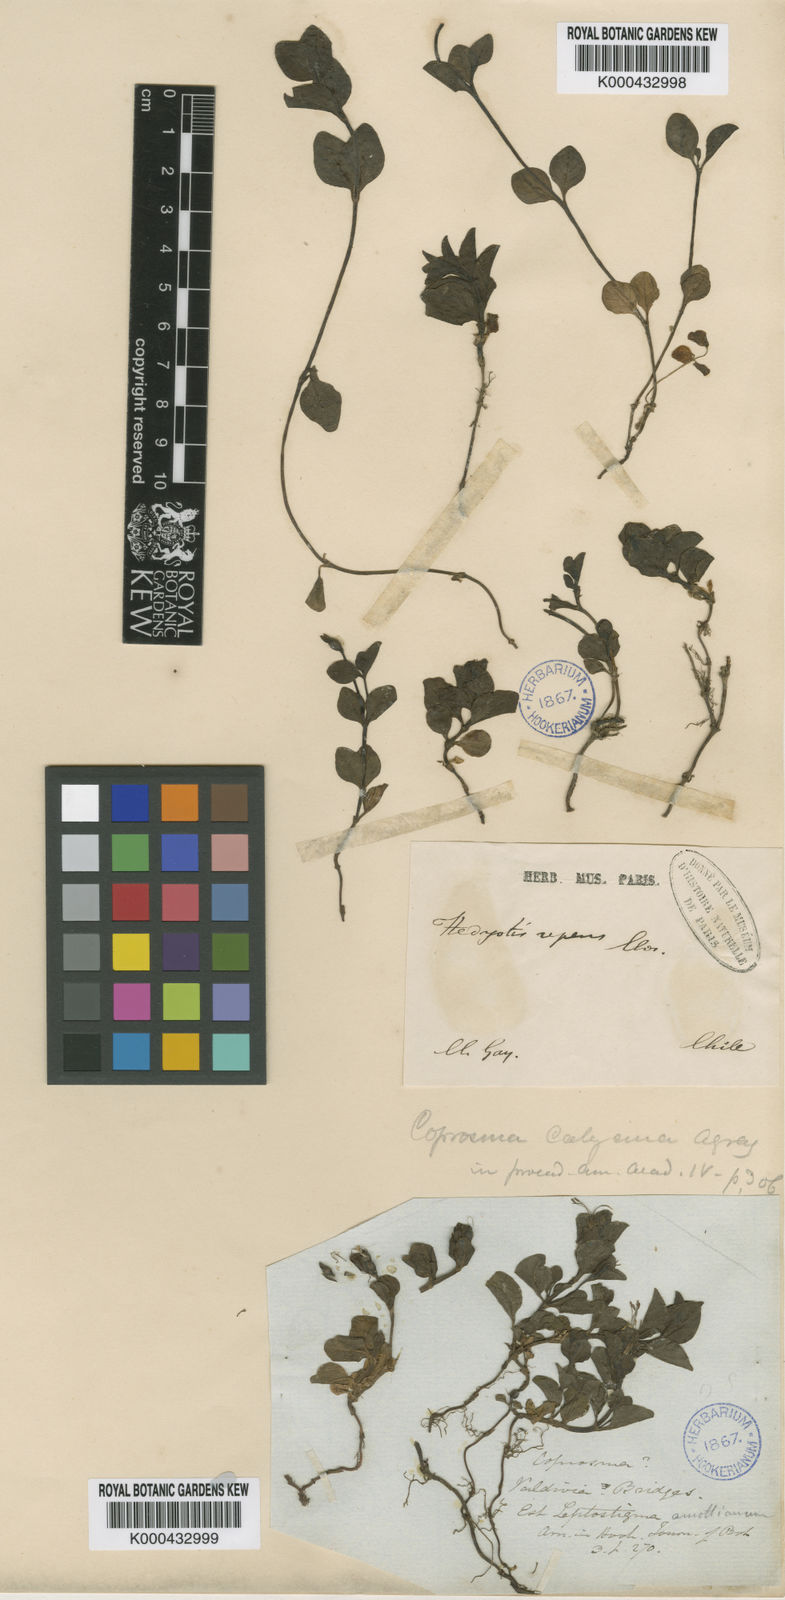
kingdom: Plantae
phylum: Tracheophyta
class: Magnoliopsida
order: Gentianales
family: Rubiaceae
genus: Leptostigma
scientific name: Leptostigma arnottianum
